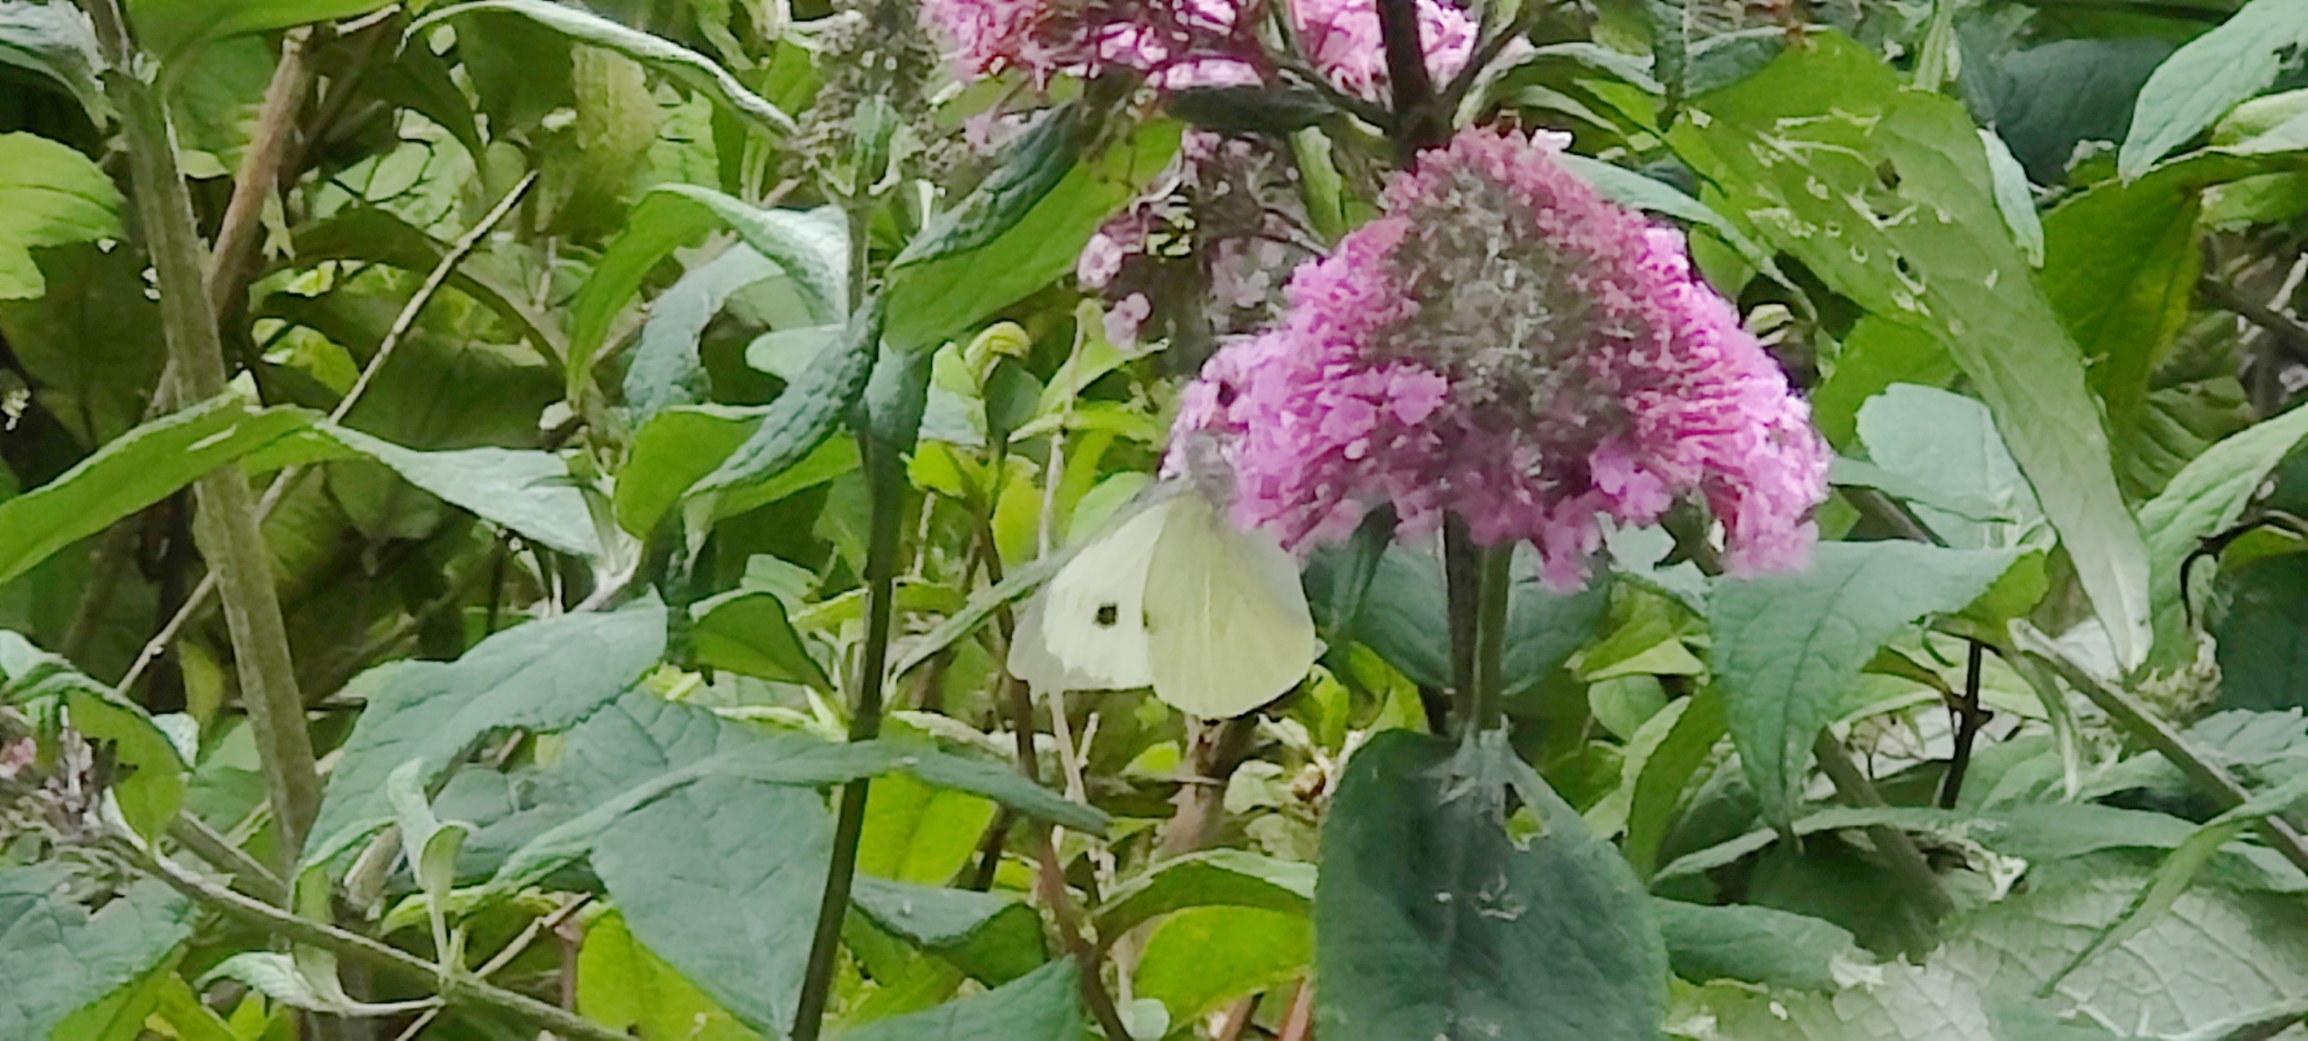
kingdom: Animalia
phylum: Arthropoda
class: Insecta
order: Lepidoptera
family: Pieridae
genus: Pieris
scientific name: Pieris brassicae
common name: Stor kålsommerfugl
